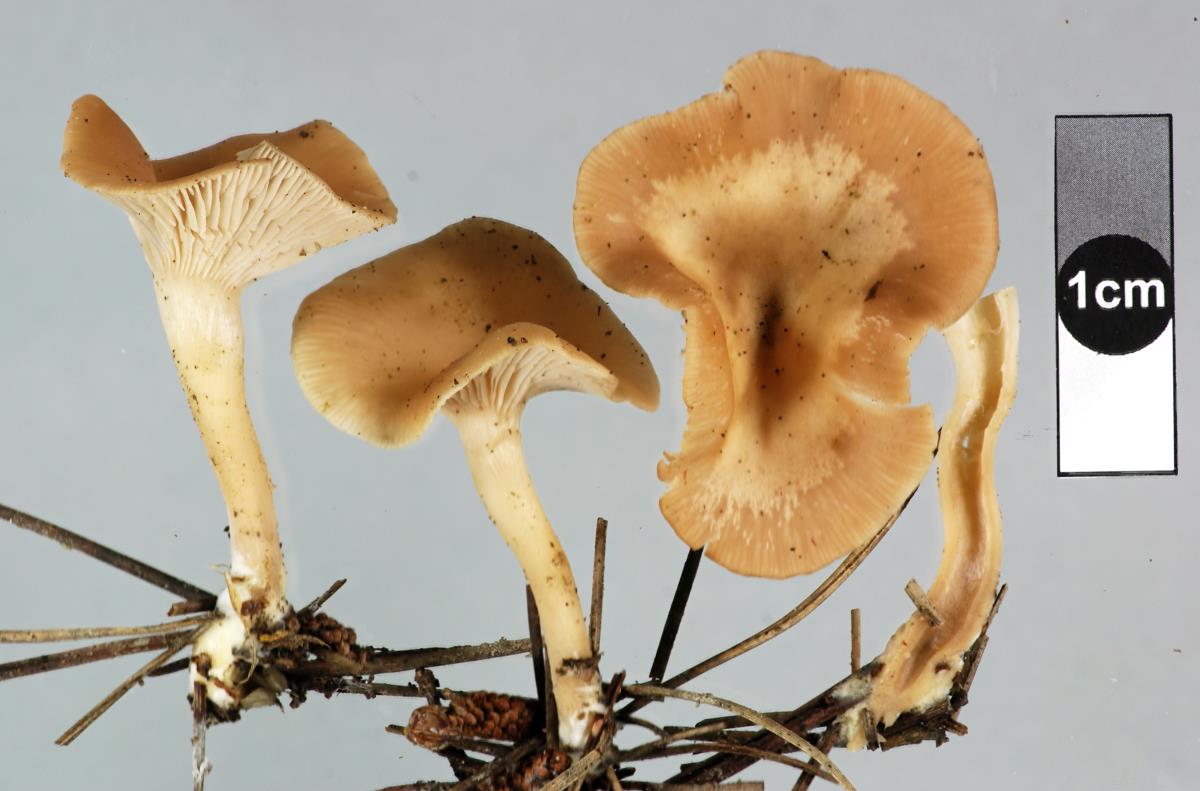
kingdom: Fungi
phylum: Basidiomycota
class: Agaricomycetes
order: Agaricales
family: Tricholomataceae
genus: Singerocybe
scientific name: Singerocybe clitocyboides
